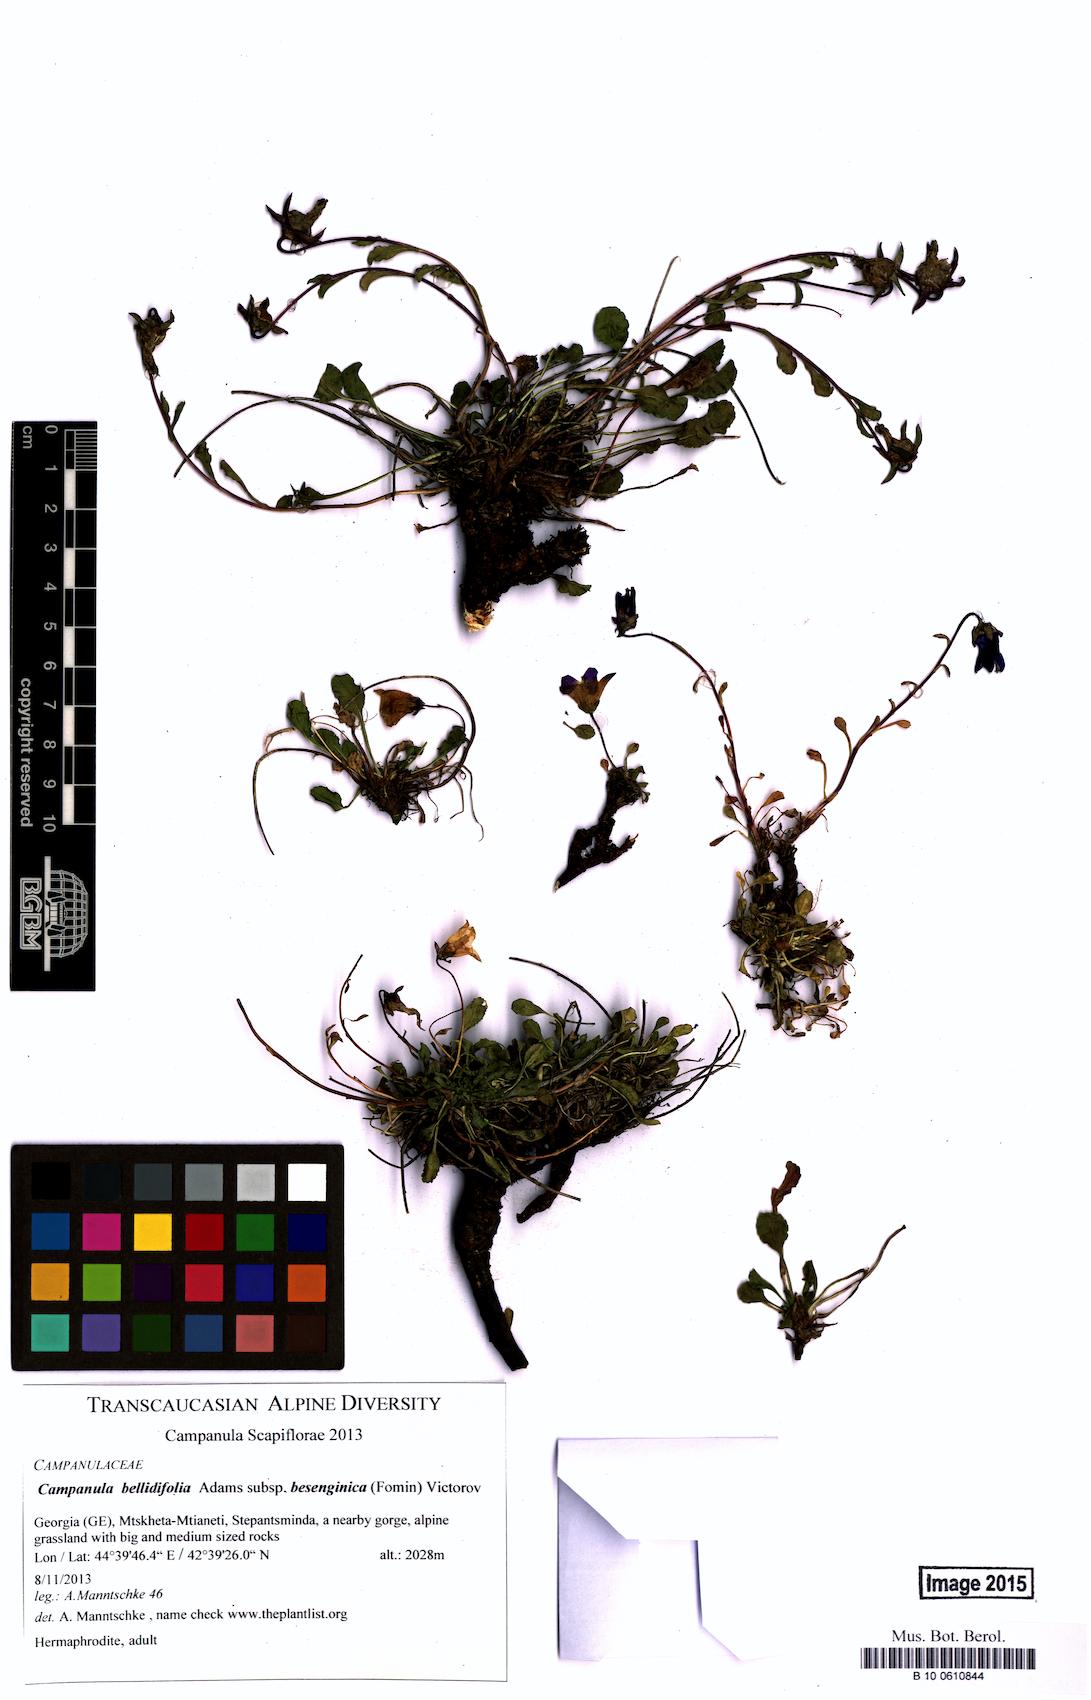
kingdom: Plantae
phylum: Tracheophyta
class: Magnoliopsida
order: Asterales
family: Campanulaceae
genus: Campanula
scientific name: Campanula bellidifolia
